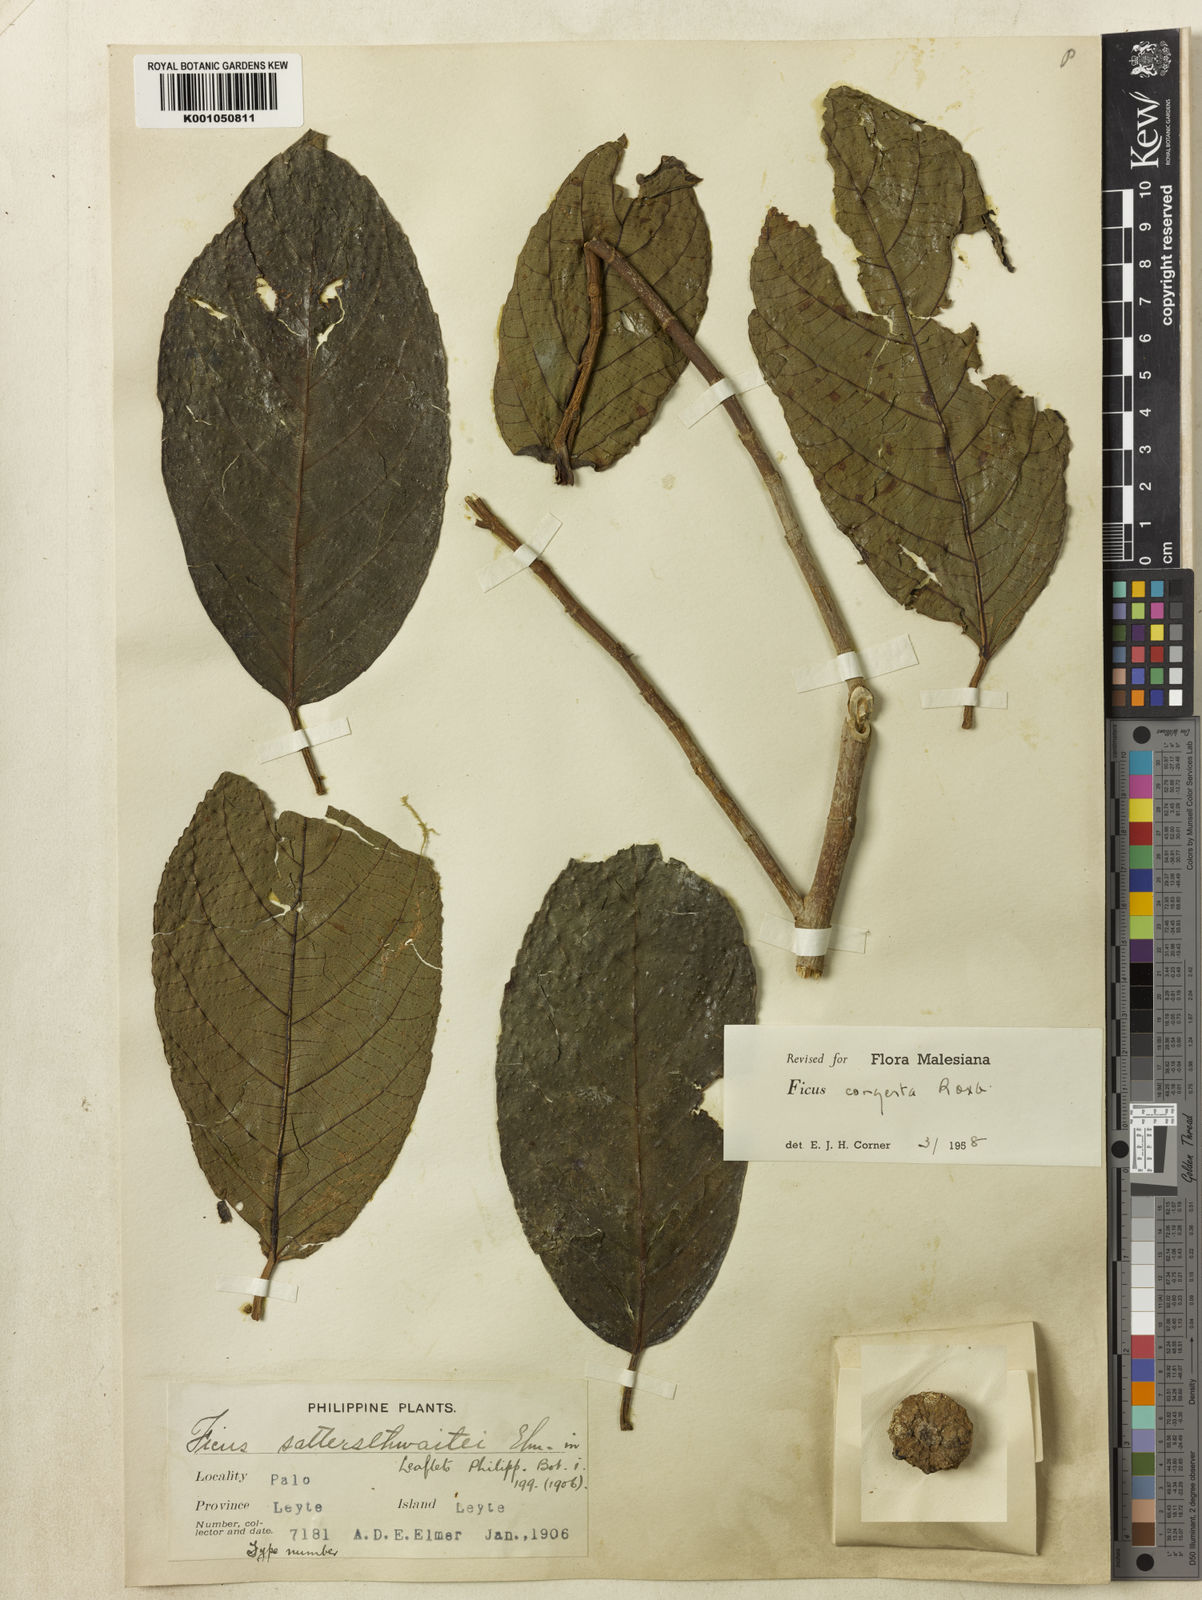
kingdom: Plantae
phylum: Tracheophyta
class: Magnoliopsida
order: Rosales
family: Moraceae
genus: Ficus
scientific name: Ficus congesta
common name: Cluster fig
